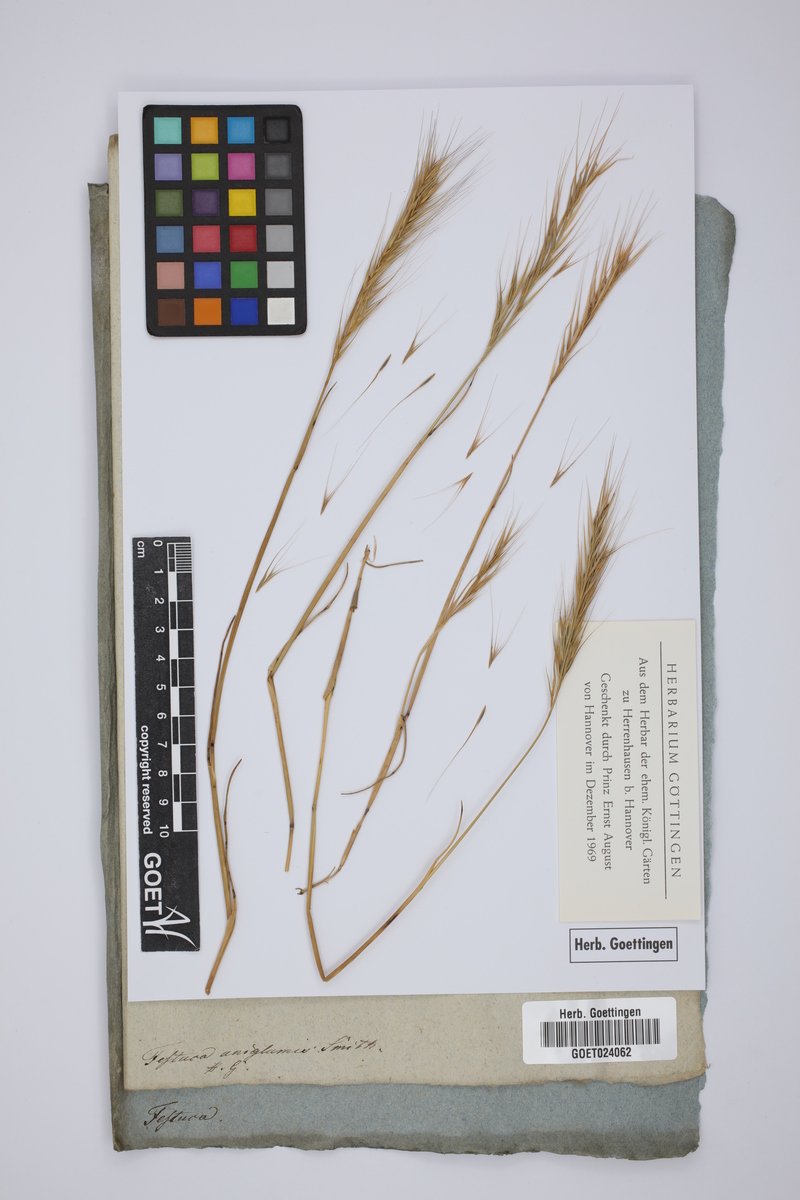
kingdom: Plantae
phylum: Tracheophyta
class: Liliopsida
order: Poales
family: Poaceae
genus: Festuca
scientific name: Festuca bromoides
